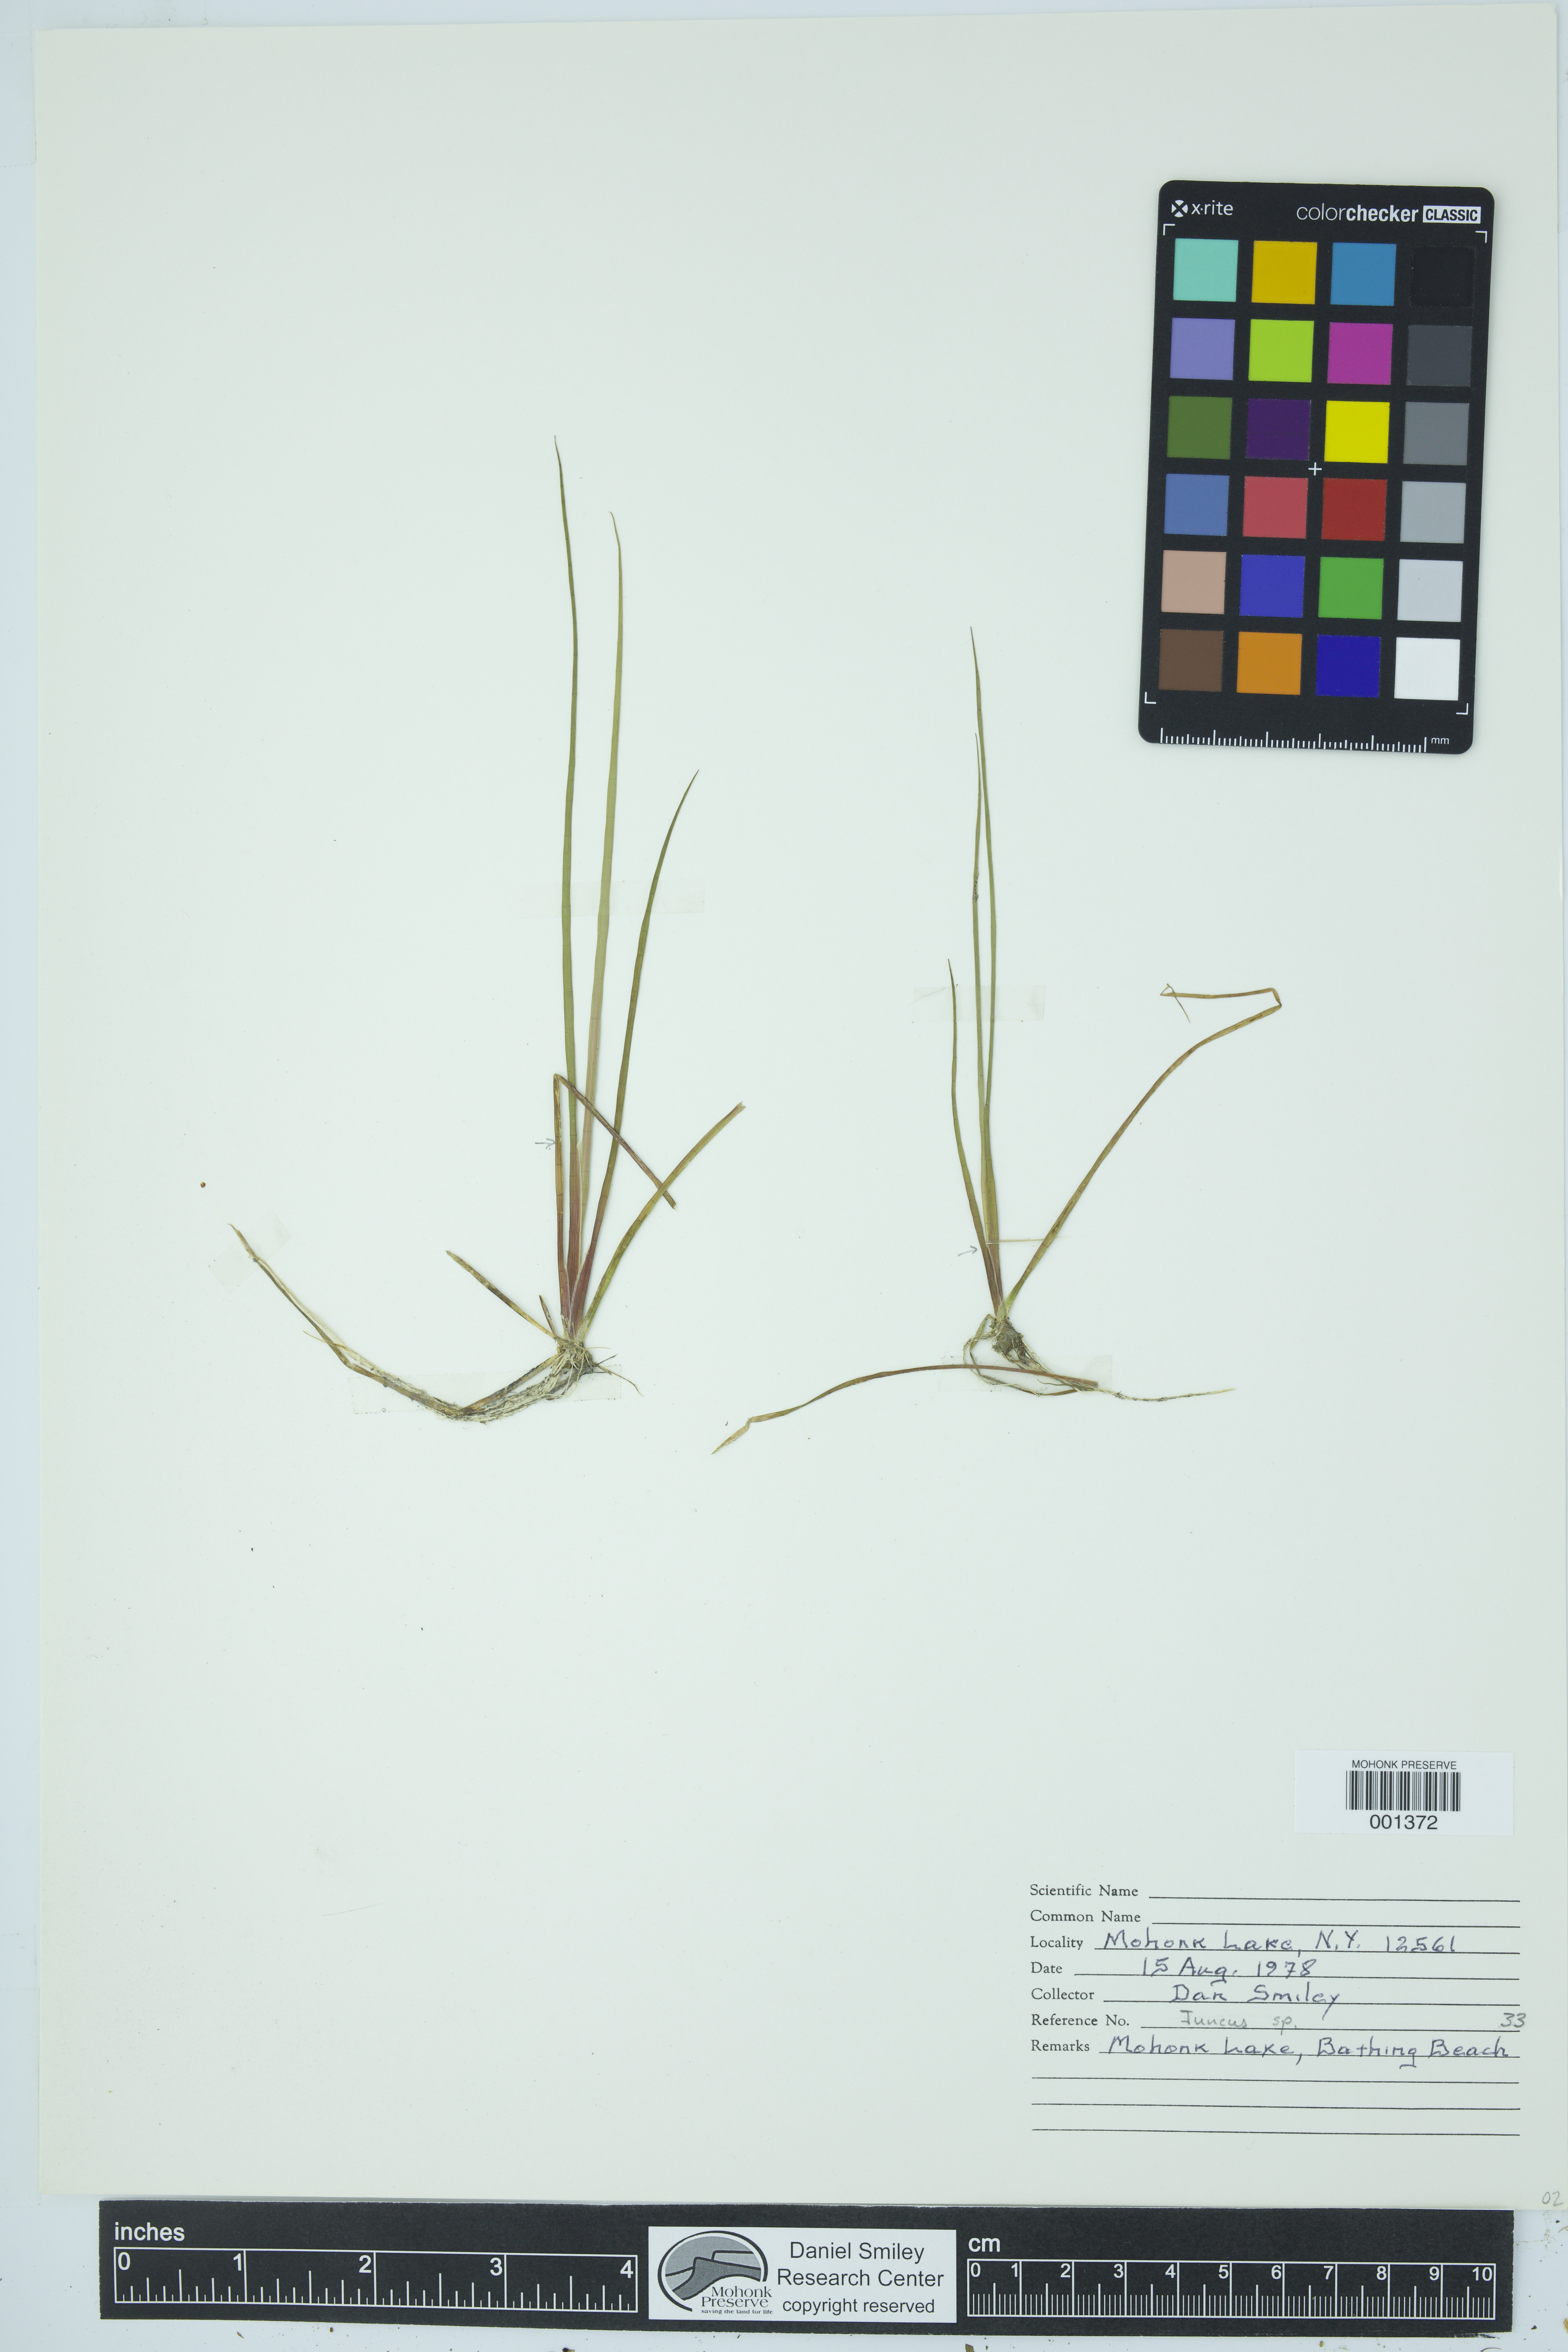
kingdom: Plantae
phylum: Tracheophyta
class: Liliopsida
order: Poales
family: Juncaceae
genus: Juncus
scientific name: Juncus
